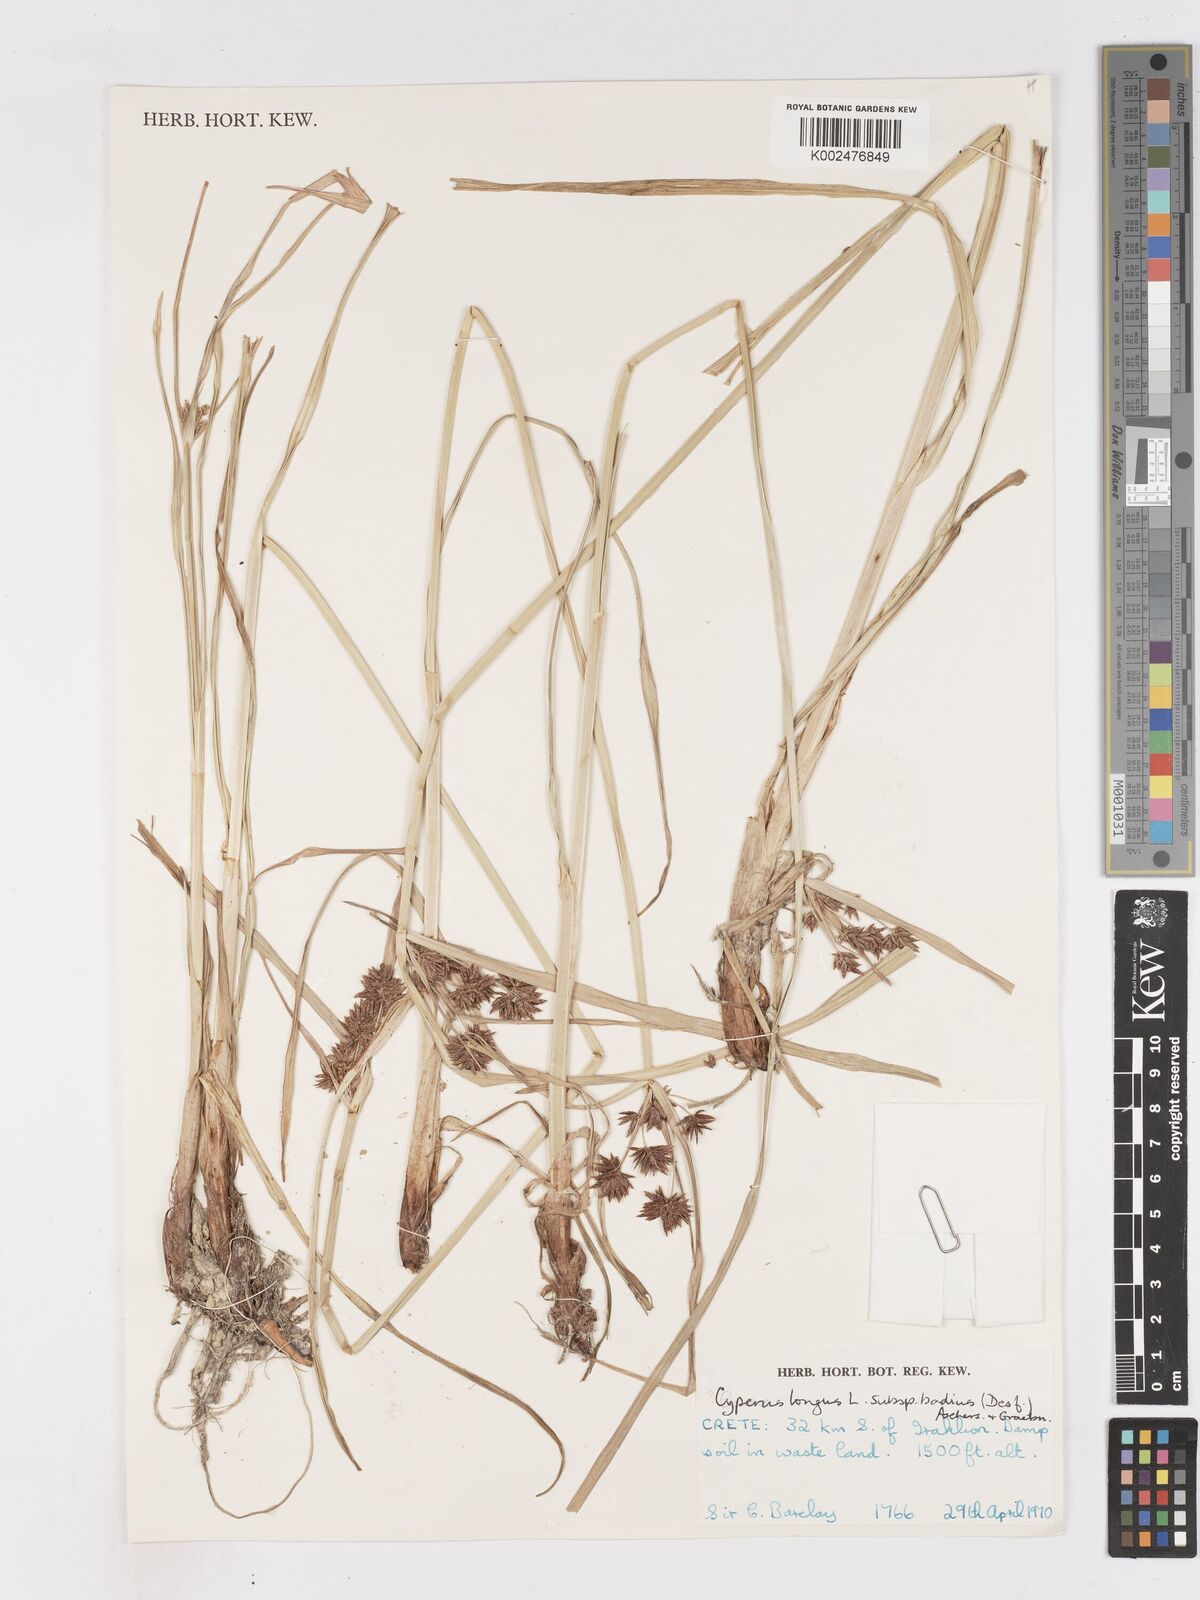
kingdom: Plantae
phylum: Tracheophyta
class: Liliopsida
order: Poales
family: Cyperaceae
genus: Cyperus
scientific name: Cyperus longus
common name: Galingale
